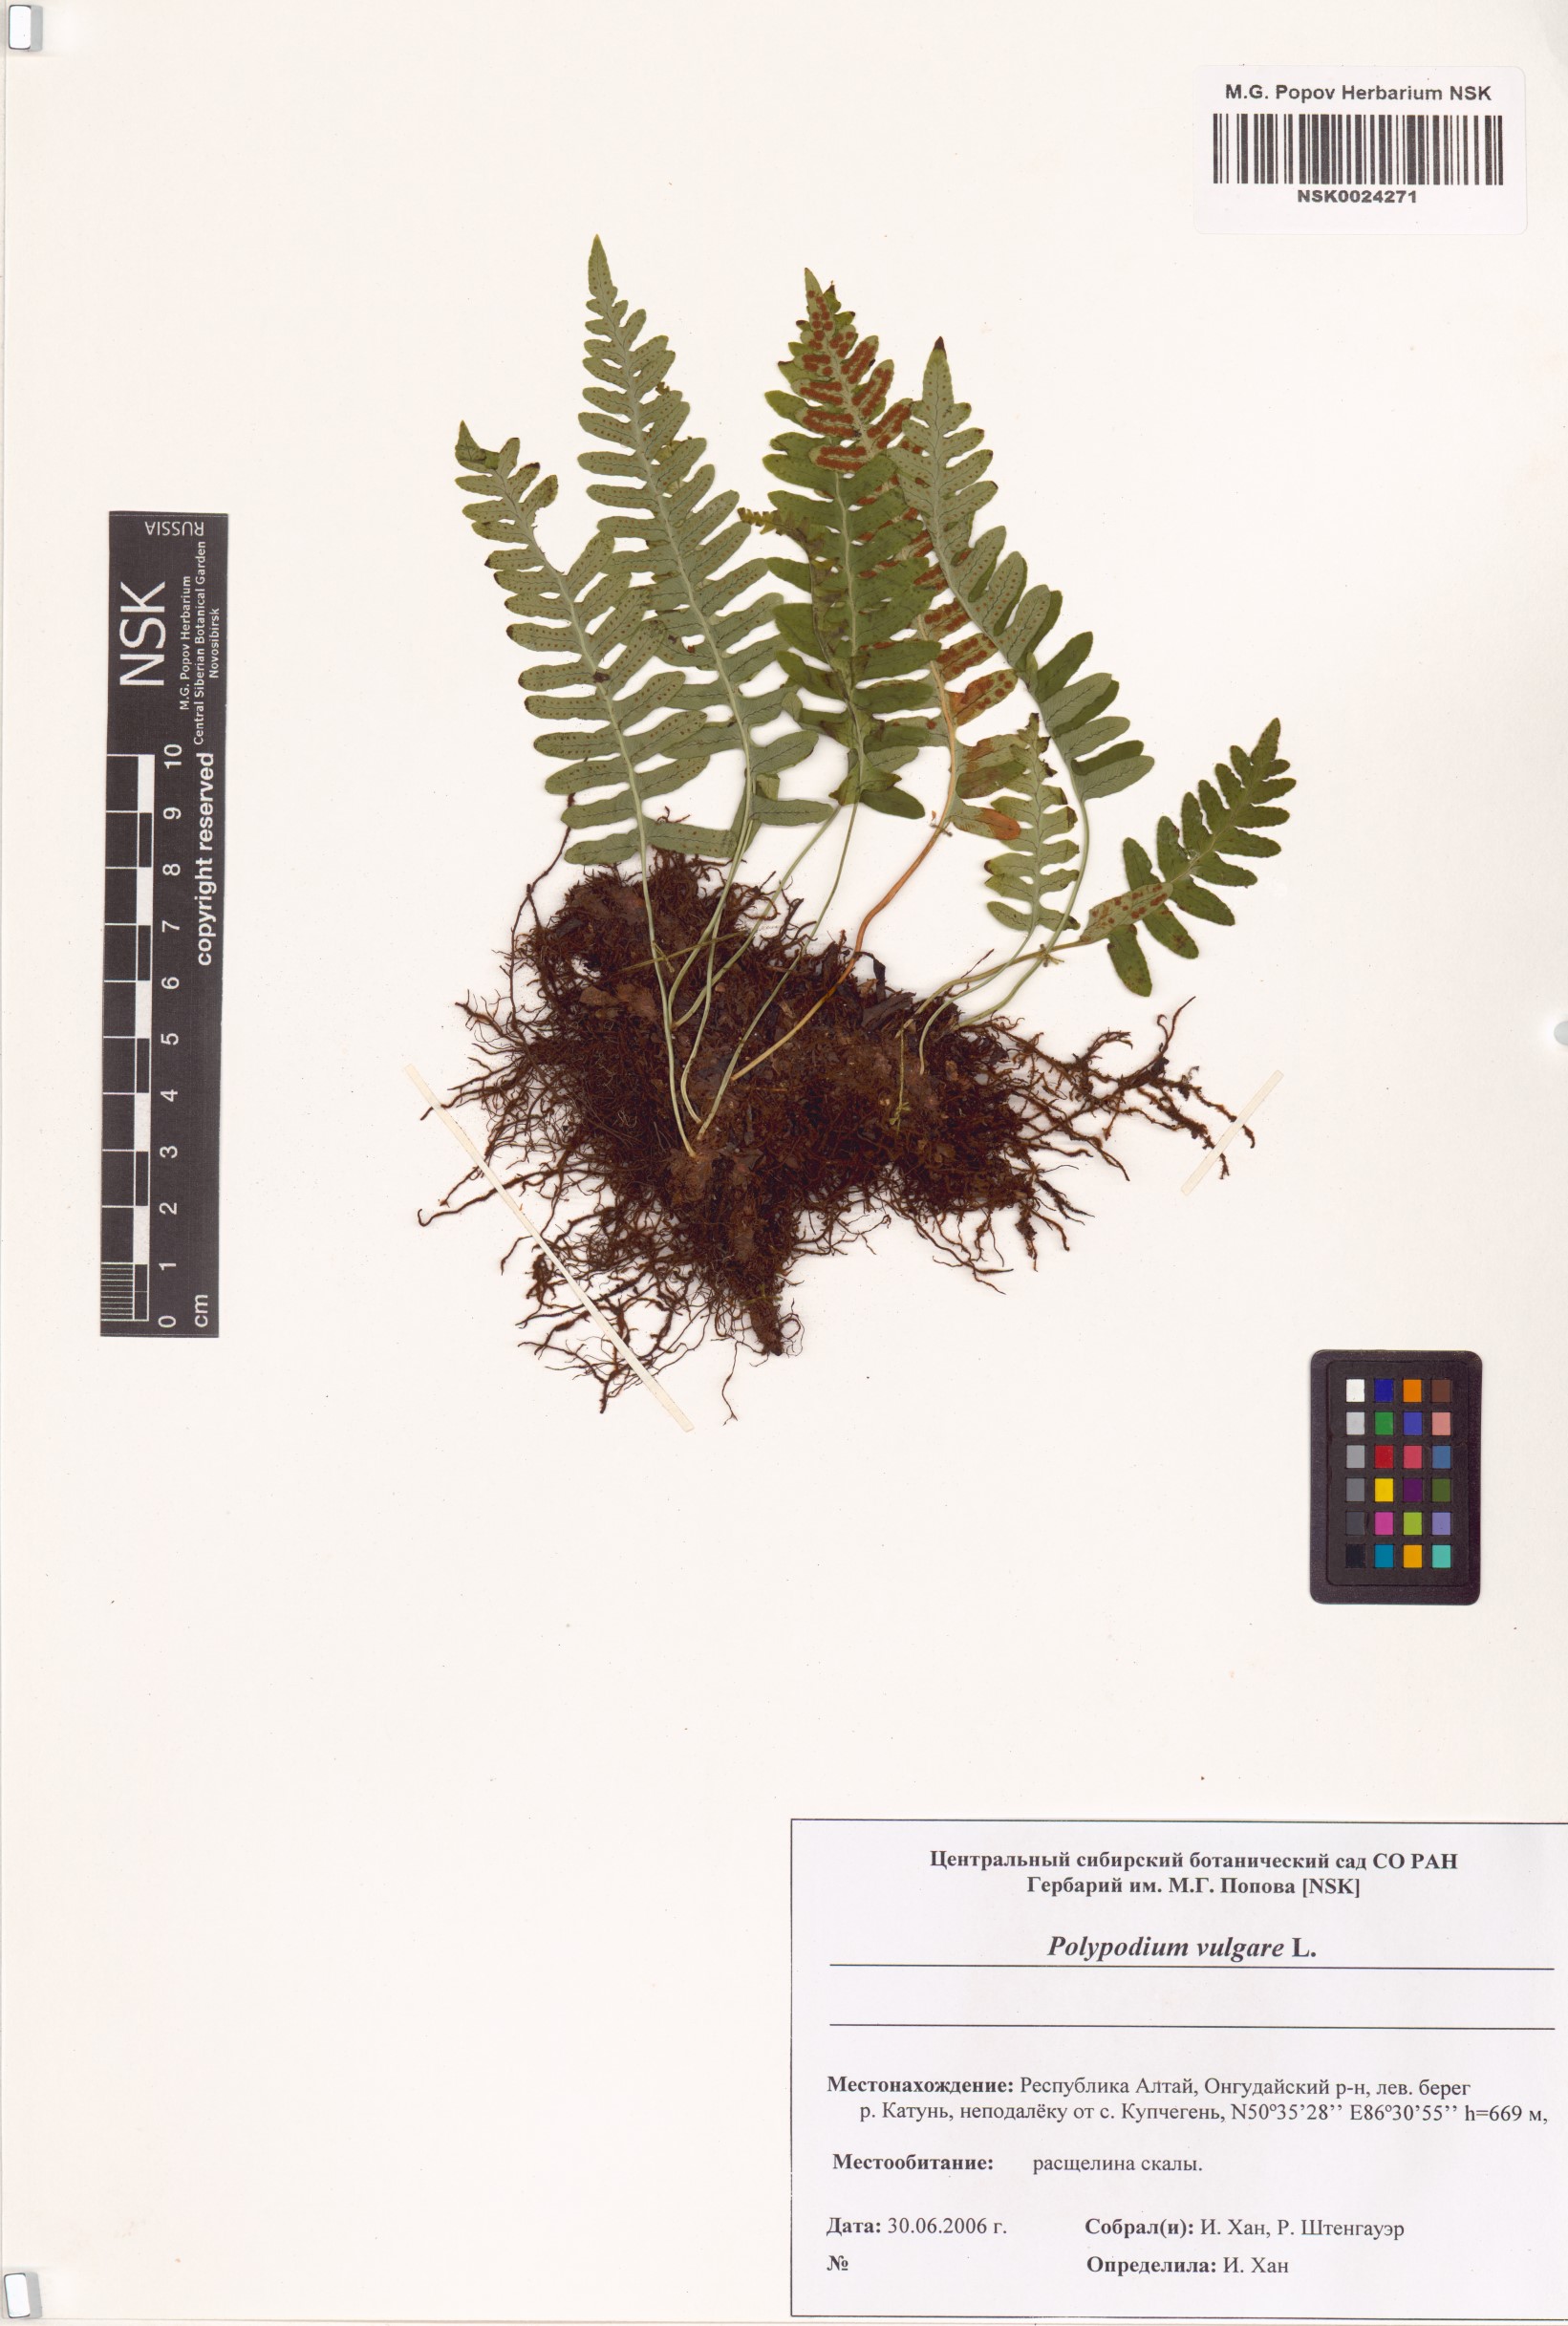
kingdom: Plantae
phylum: Tracheophyta
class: Polypodiopsida
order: Polypodiales
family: Polypodiaceae
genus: Polypodium
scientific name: Polypodium vulgare
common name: Common polypody
